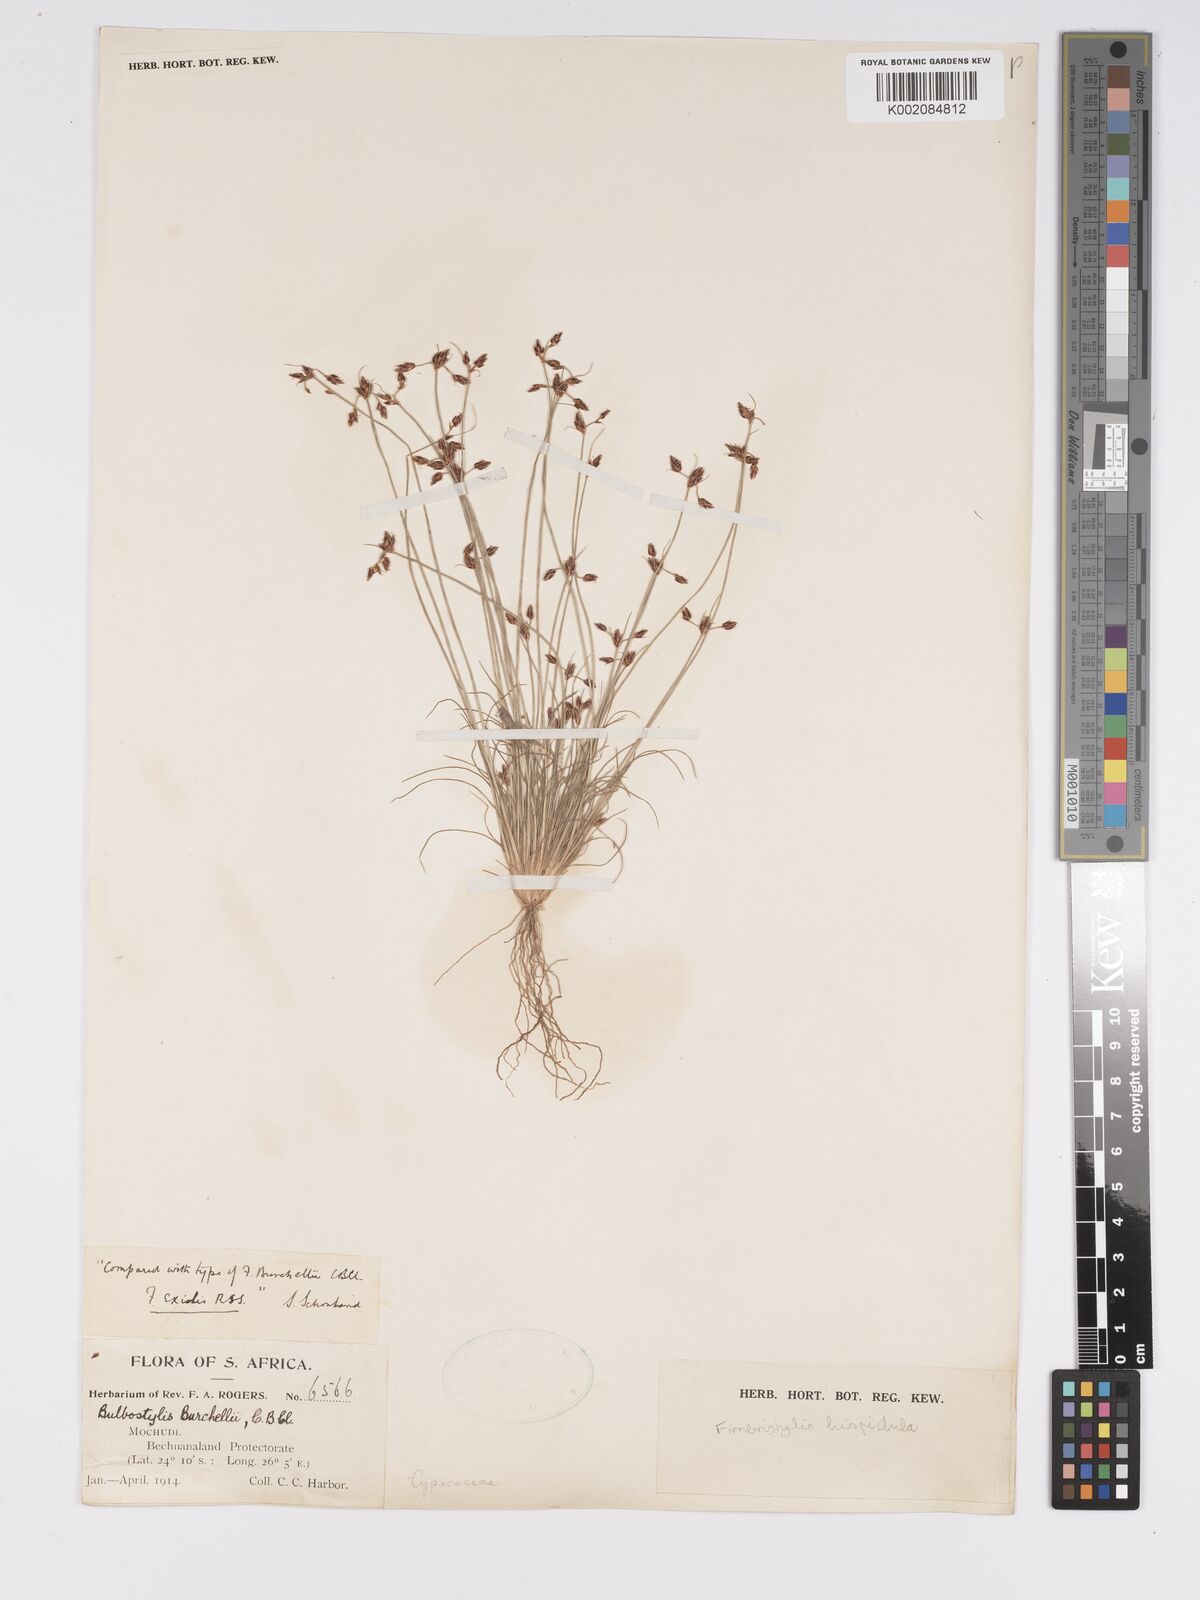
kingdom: Plantae
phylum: Tracheophyta
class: Liliopsida
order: Poales
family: Cyperaceae
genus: Bulbostylis
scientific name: Bulbostylis hispidula
